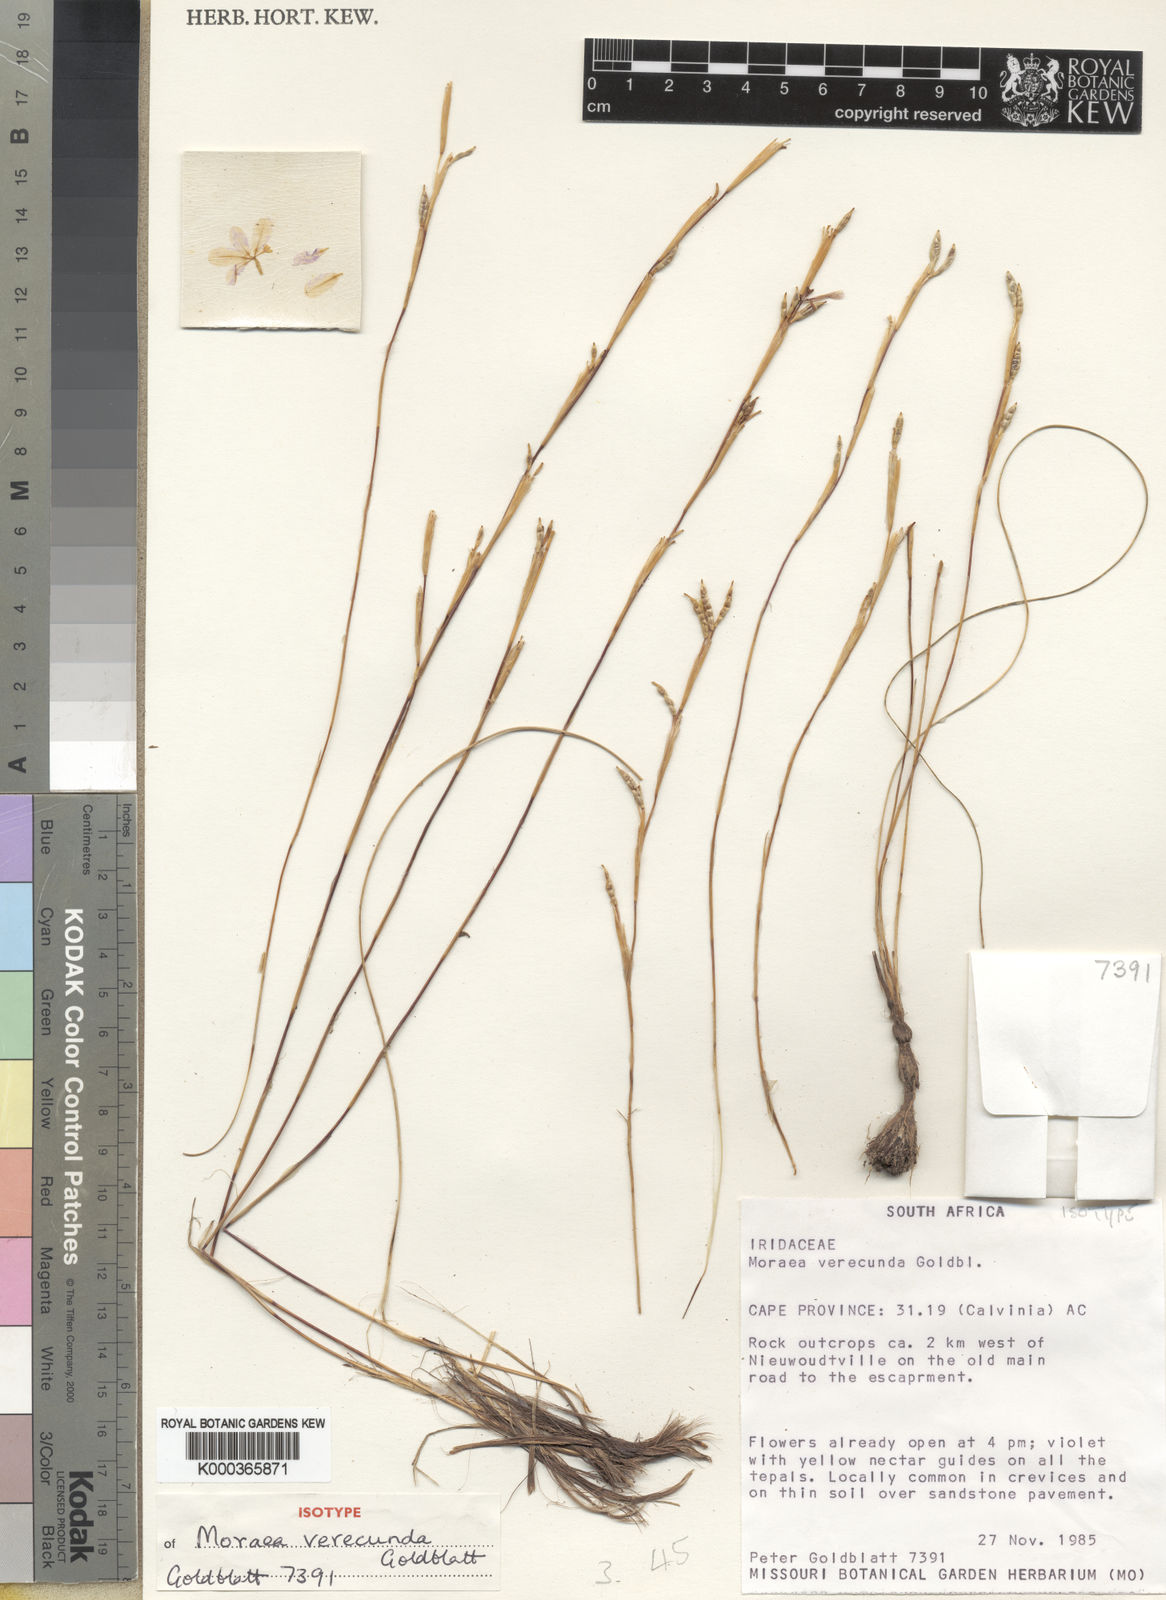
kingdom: Plantae
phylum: Tracheophyta
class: Liliopsida
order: Asparagales
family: Iridaceae
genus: Moraea
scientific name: Moraea verecunda
